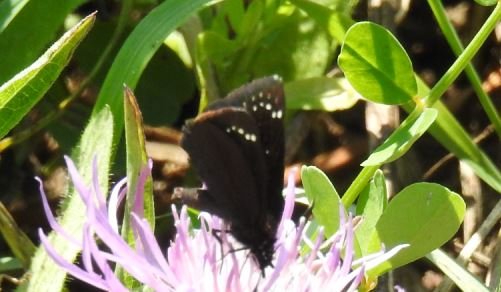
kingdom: Animalia
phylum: Arthropoda
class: Insecta
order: Lepidoptera
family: Hesperiidae
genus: Pholisora
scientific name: Pholisora catullus
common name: Common Sootywing
